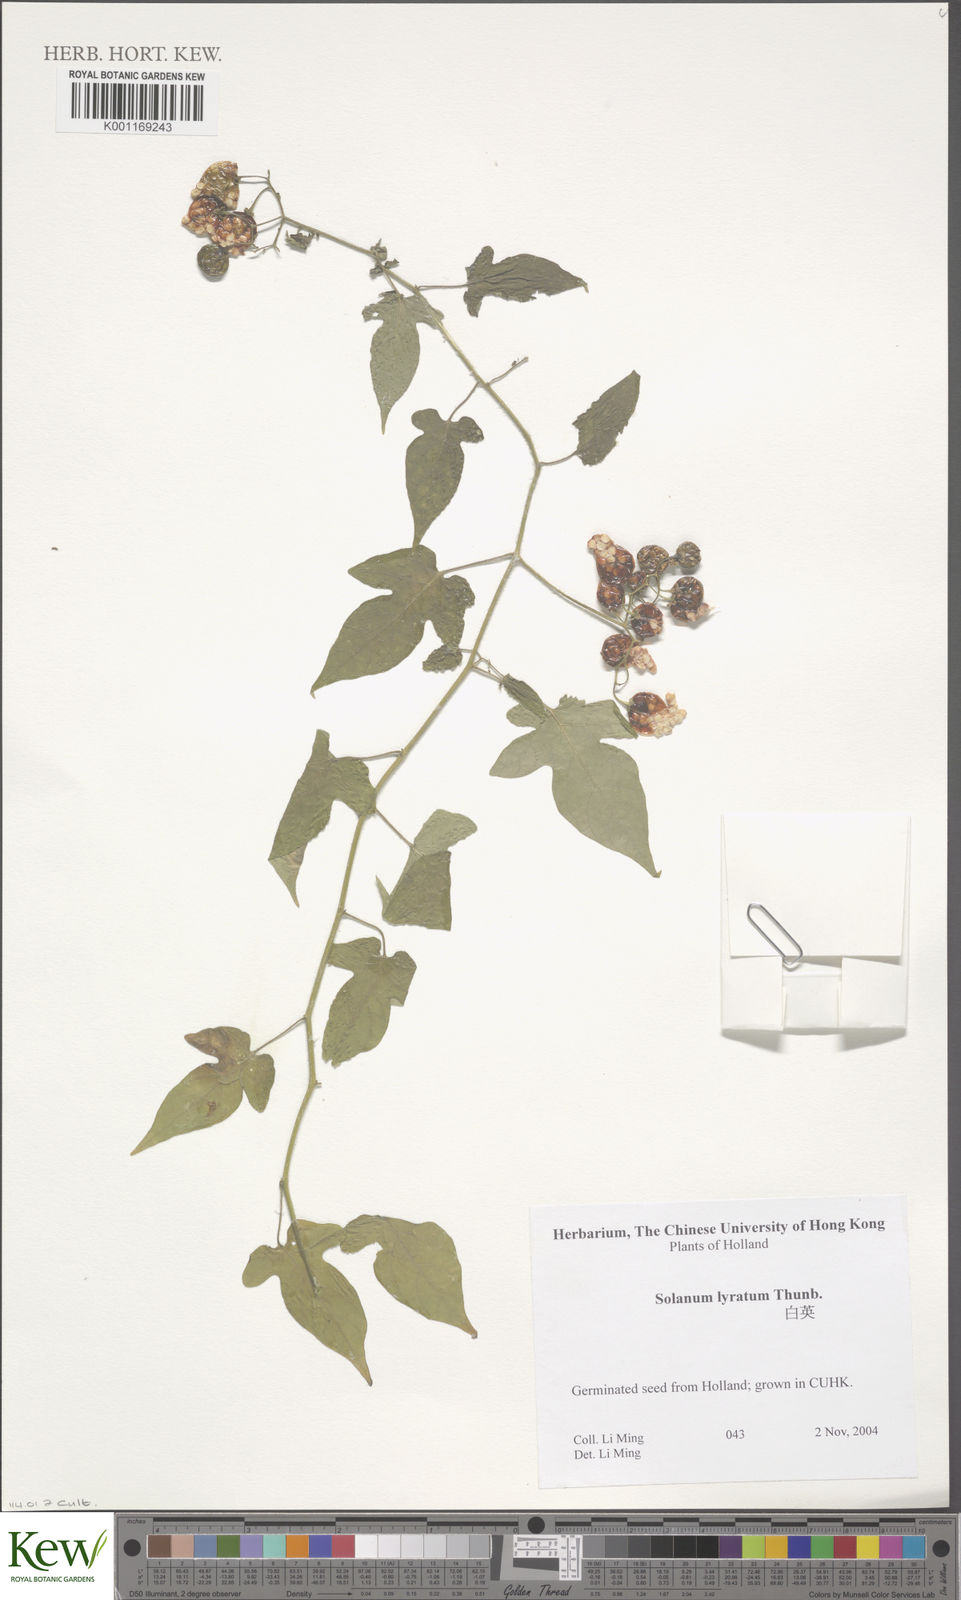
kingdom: Plantae
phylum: Tracheophyta
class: Magnoliopsida
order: Solanales
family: Solanaceae
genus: Solanum
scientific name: Solanum lyratum
